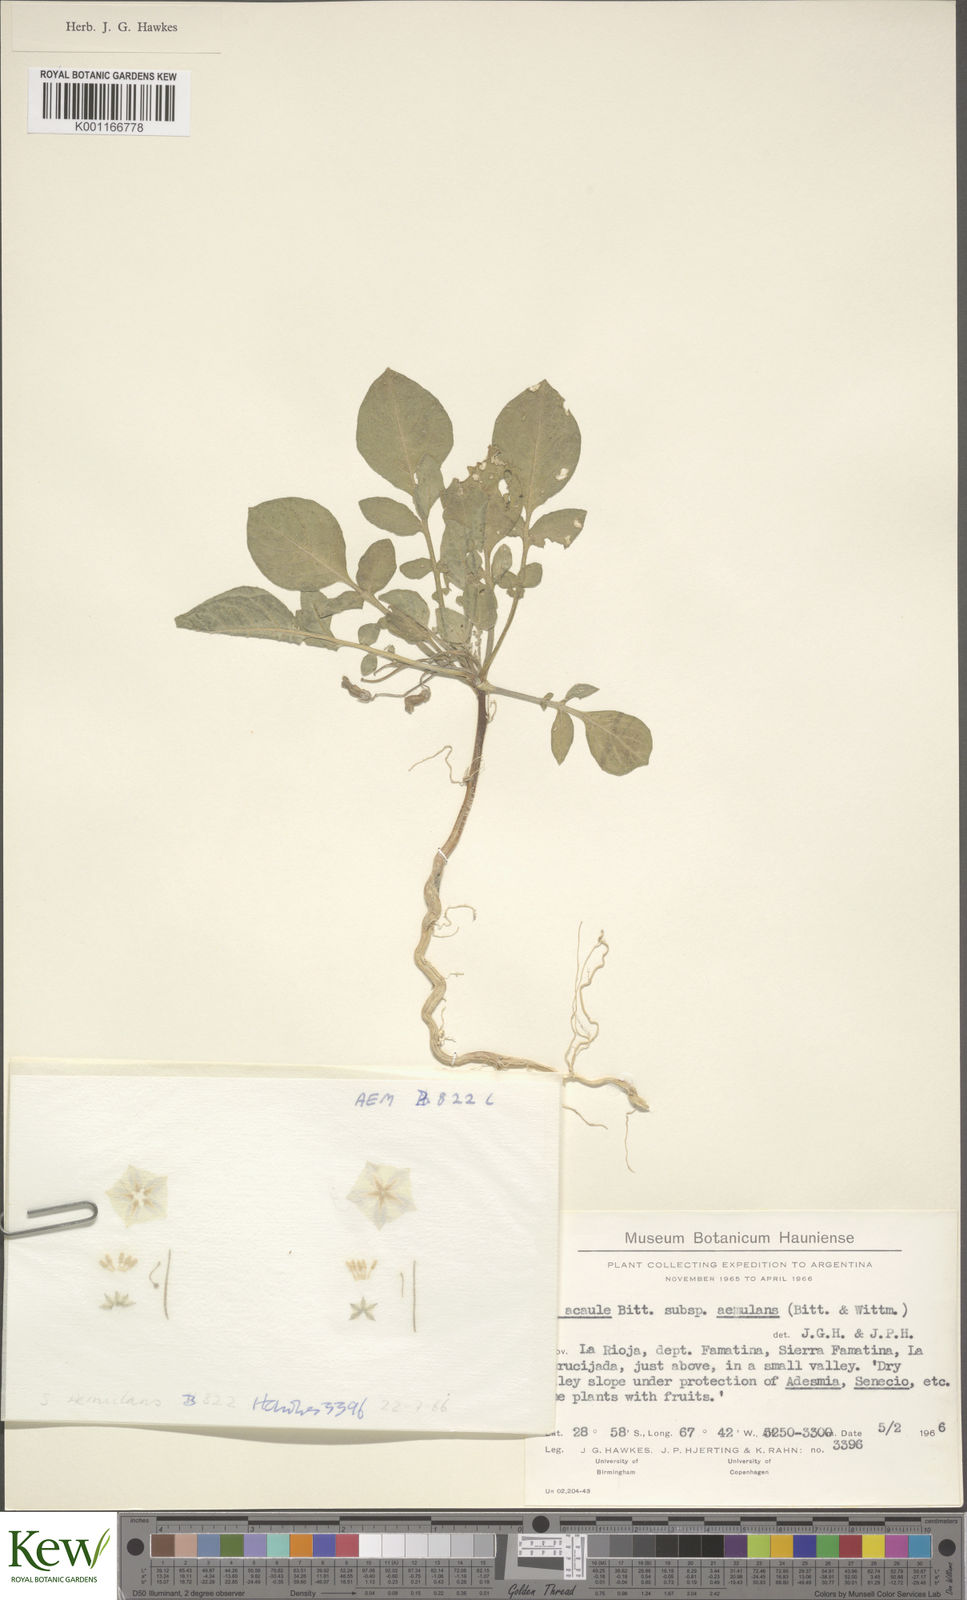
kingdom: Plantae
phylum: Tracheophyta
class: Magnoliopsida
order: Solanales
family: Solanaceae
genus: Solanum
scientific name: Solanum aemulans
